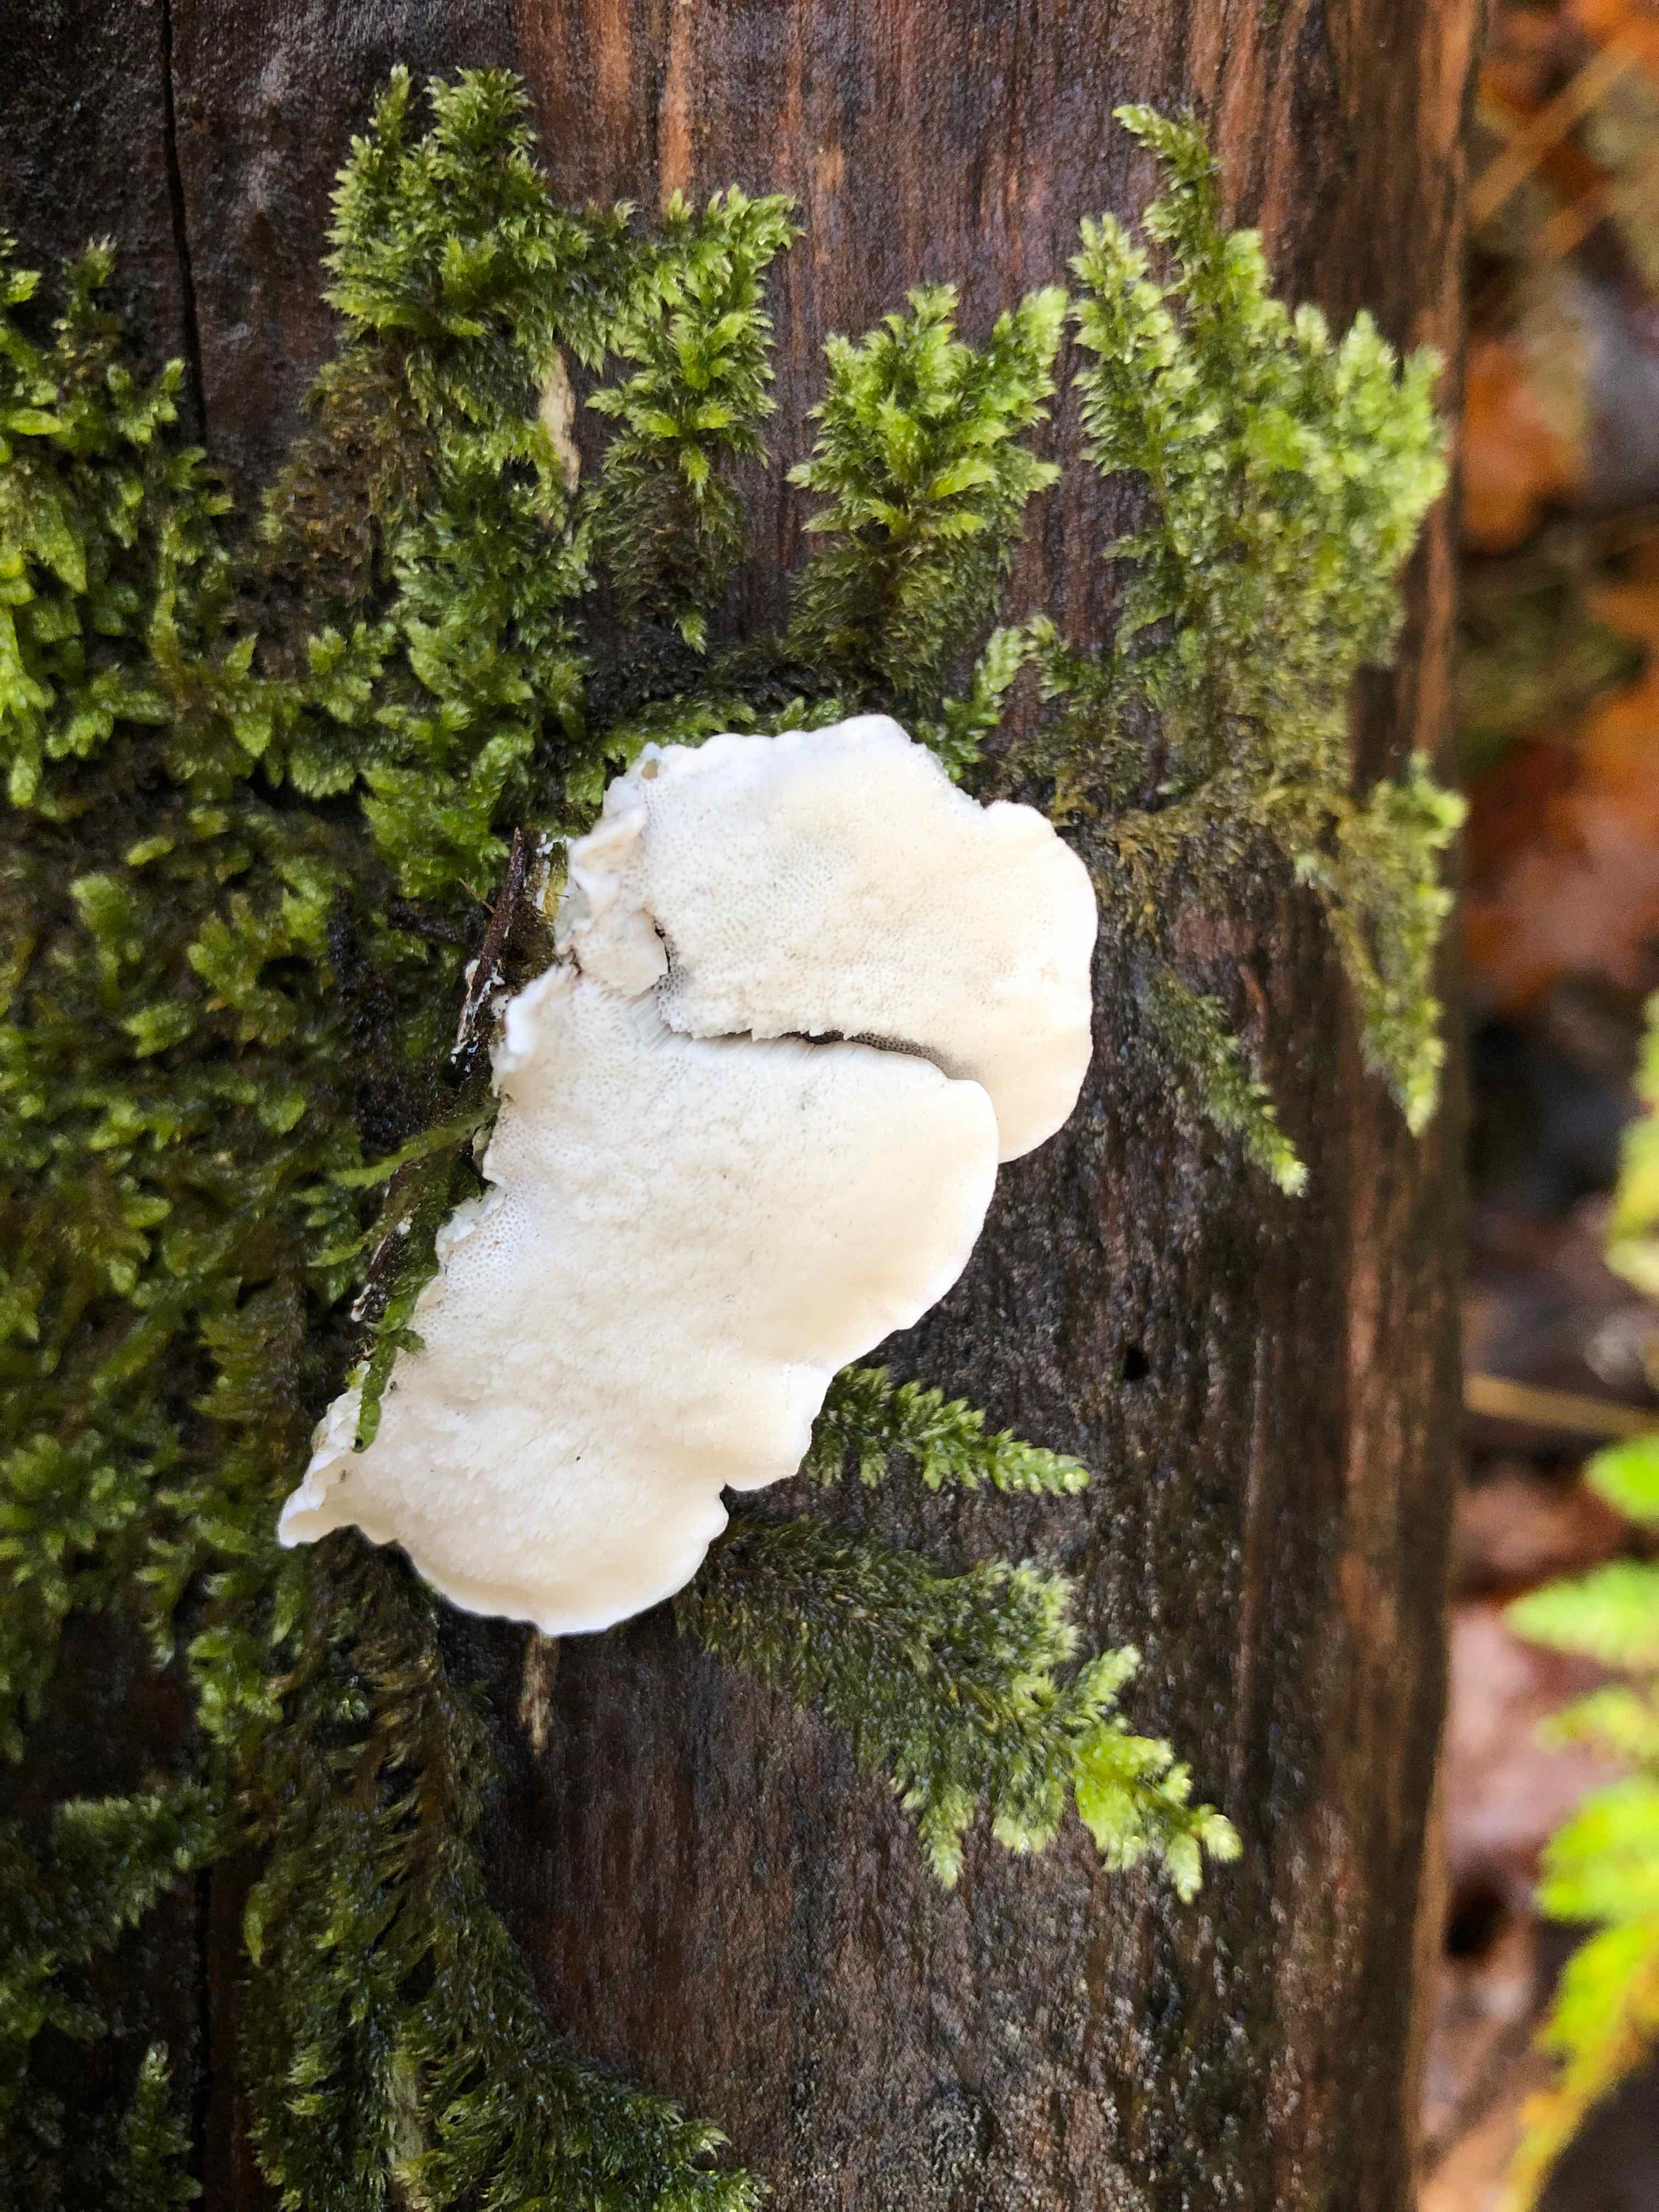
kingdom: Fungi
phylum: Basidiomycota
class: Agaricomycetes
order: Polyporales
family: Polyporaceae
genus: Cyanosporus
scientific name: Cyanosporus alni
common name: blegblå kødporesvamp
